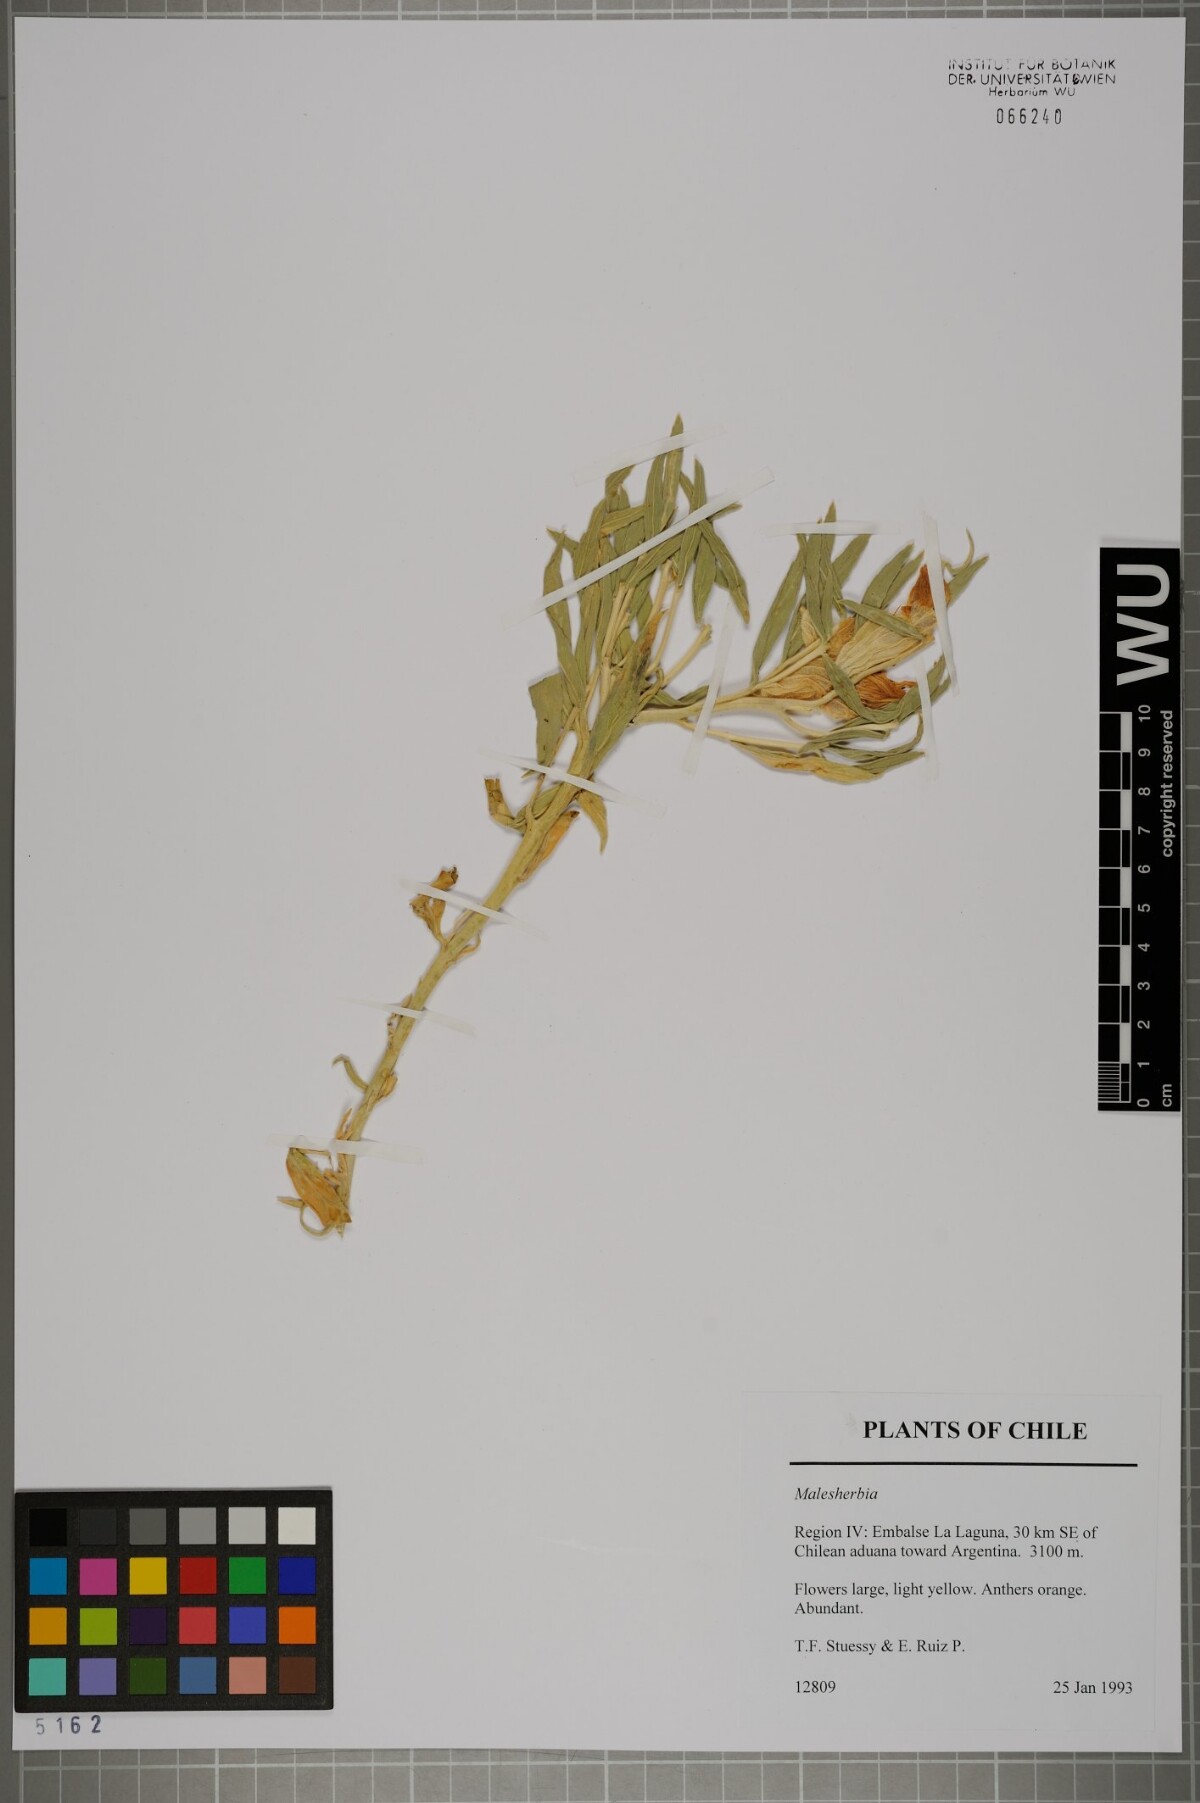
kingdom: Plantae
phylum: Tracheophyta
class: Magnoliopsida
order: Malpighiales
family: Malesherbiaceae
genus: Malesherbia
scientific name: Malesherbia
